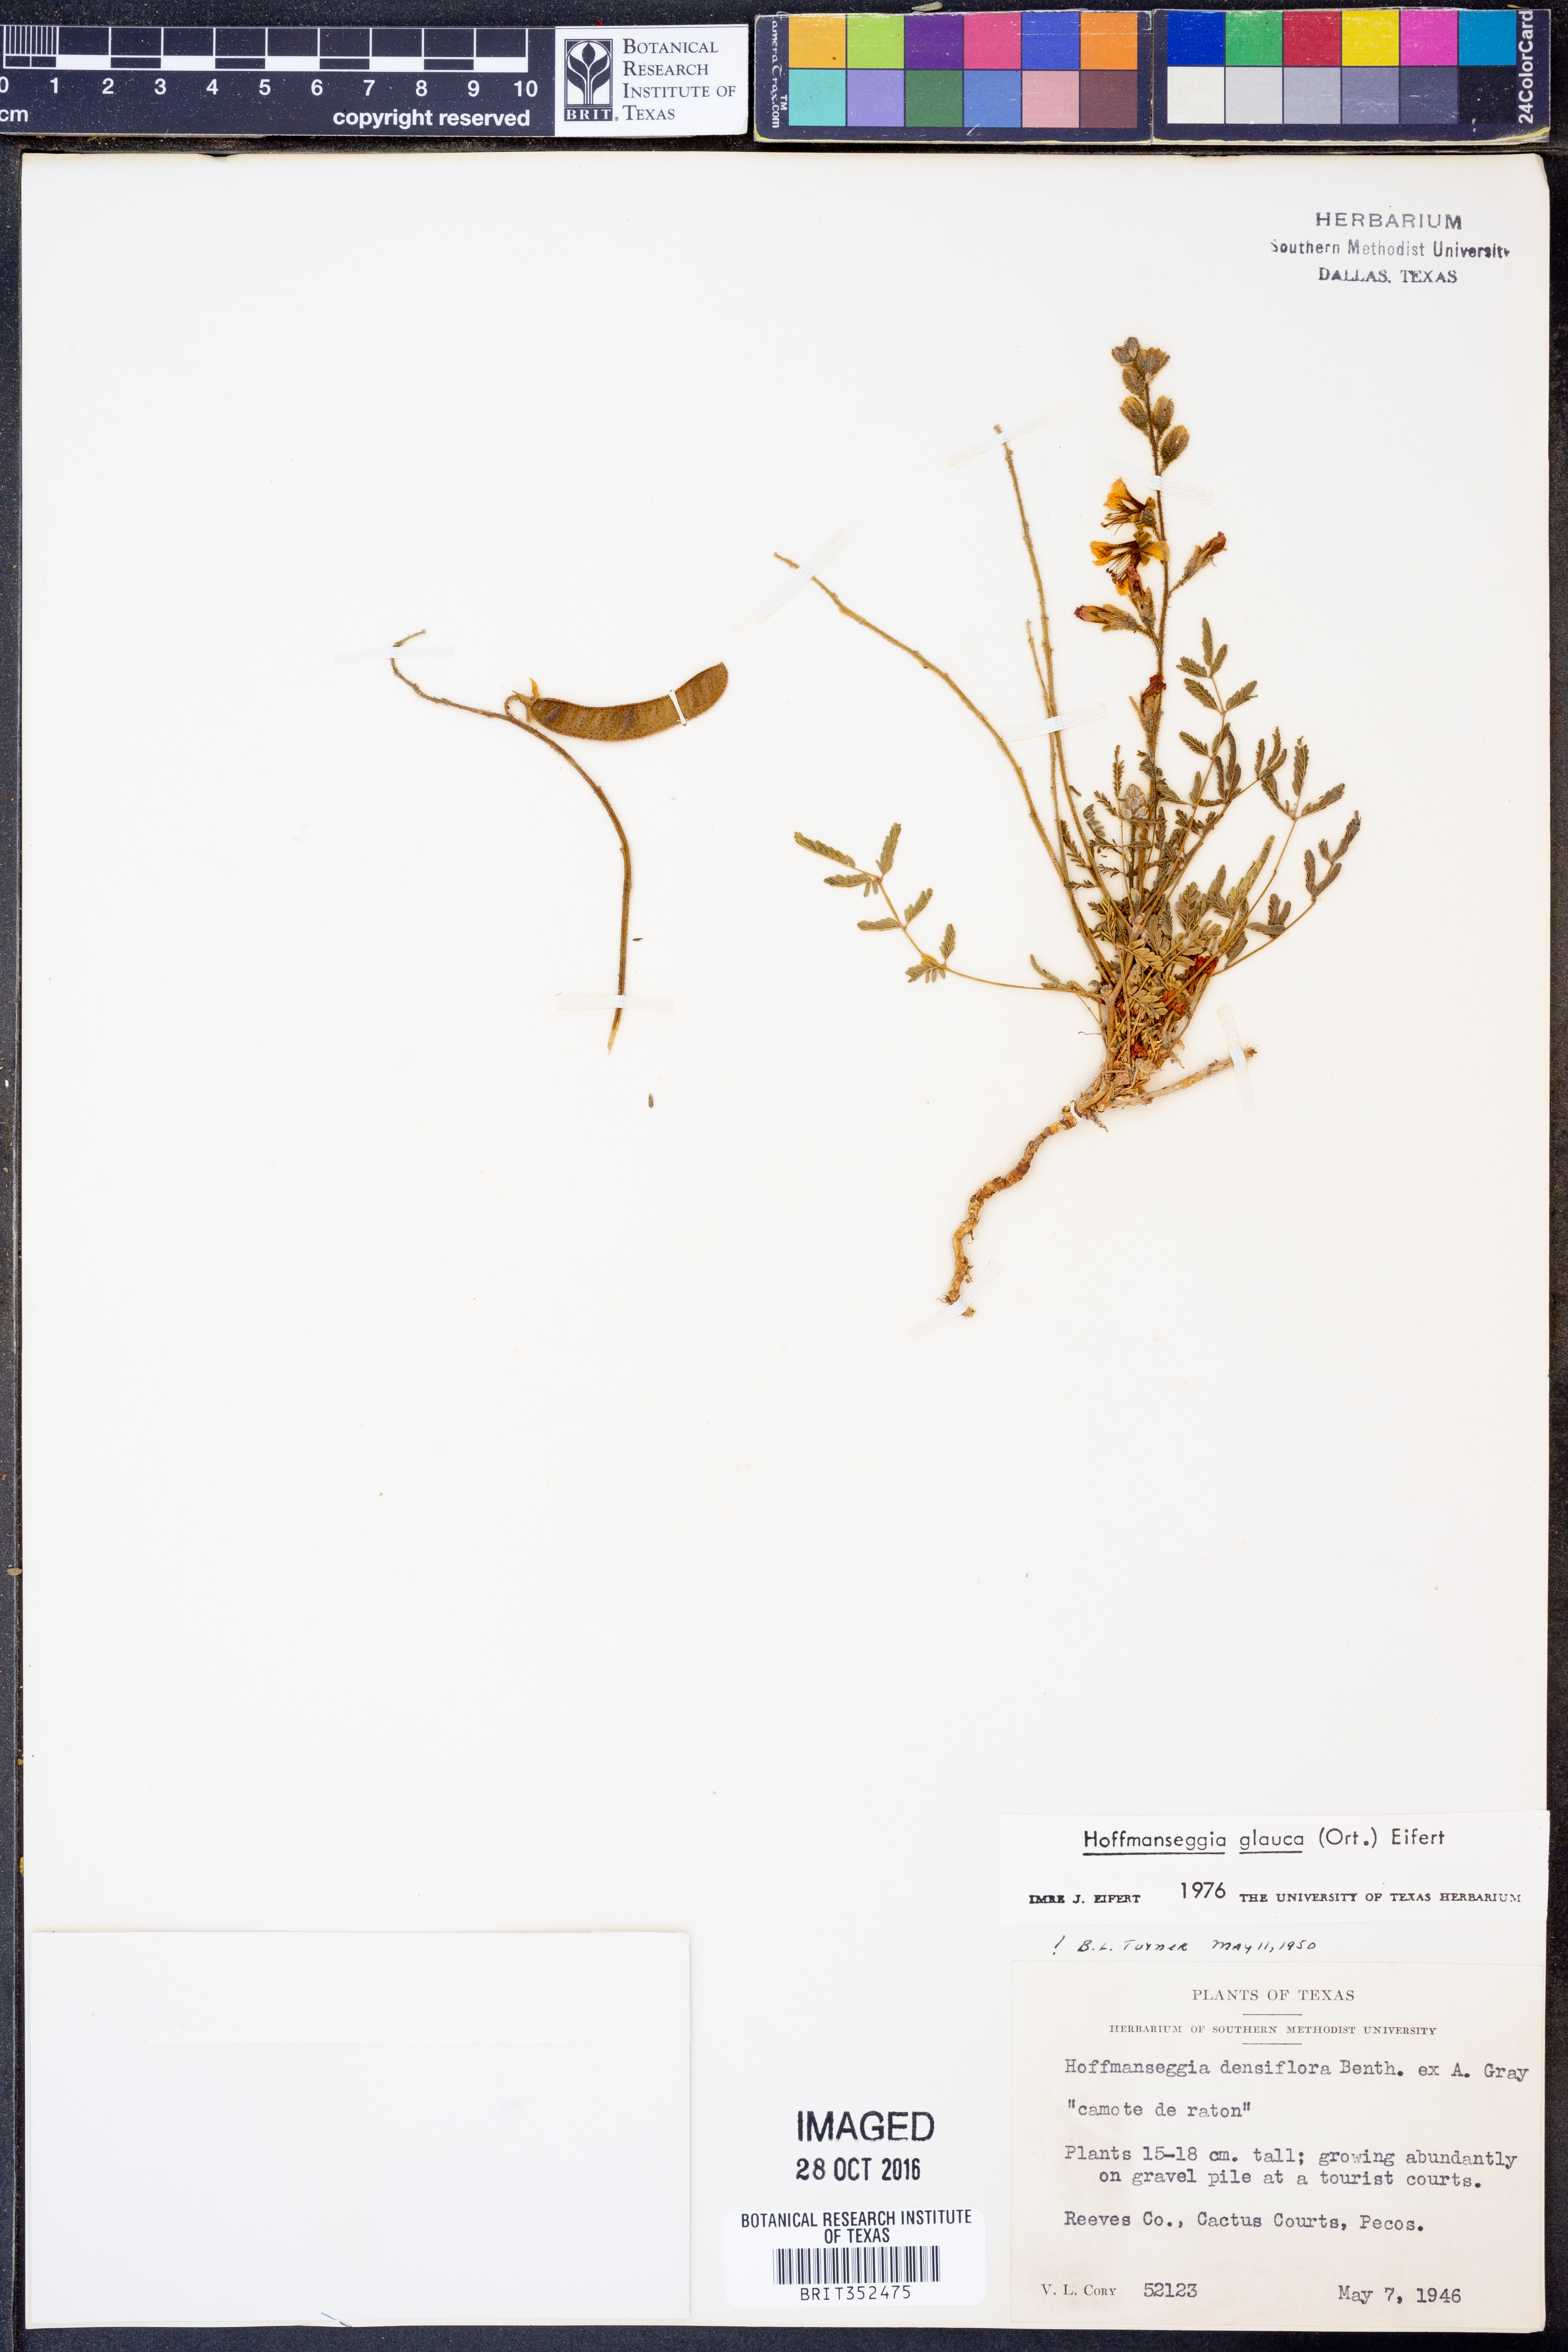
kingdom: Plantae
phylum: Tracheophyta
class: Magnoliopsida
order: Fabales
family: Fabaceae
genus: Hoffmannseggia
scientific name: Hoffmannseggia glauca
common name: Pignut
